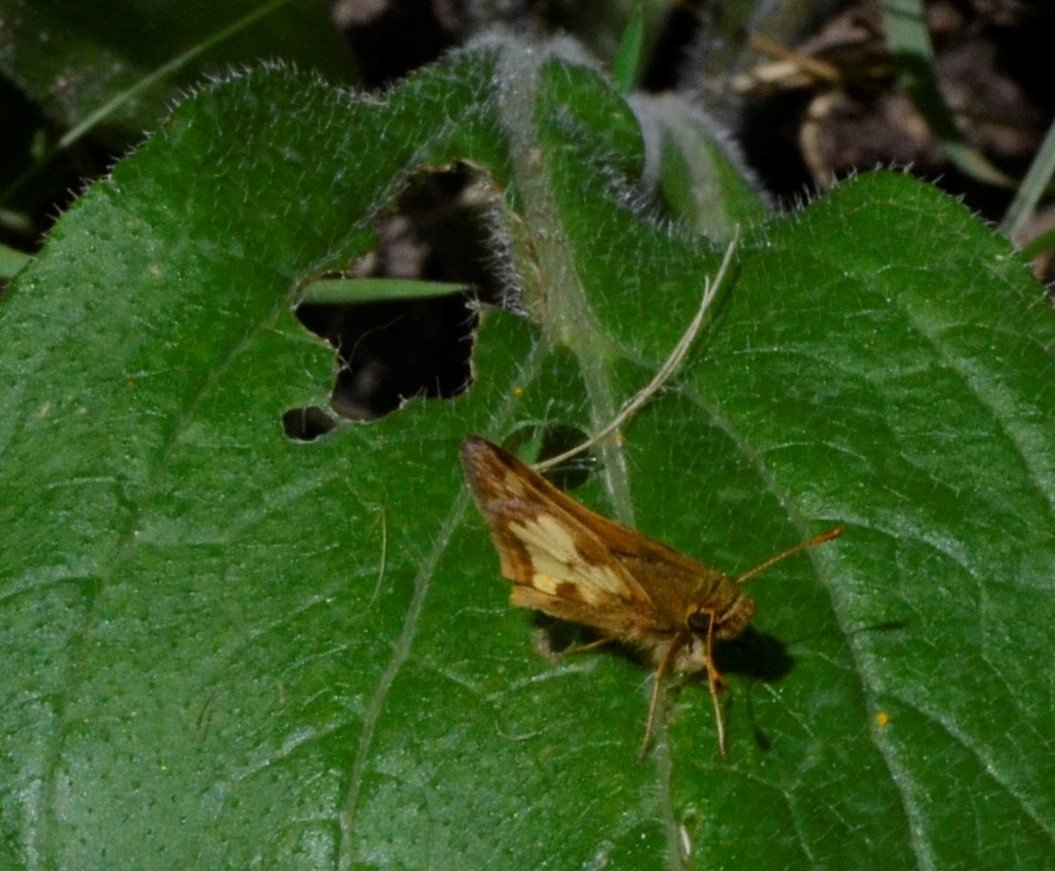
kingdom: Animalia
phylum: Arthropoda
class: Insecta
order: Lepidoptera
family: Hesperiidae
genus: Polites
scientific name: Polites coras
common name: Peck's Skipper
